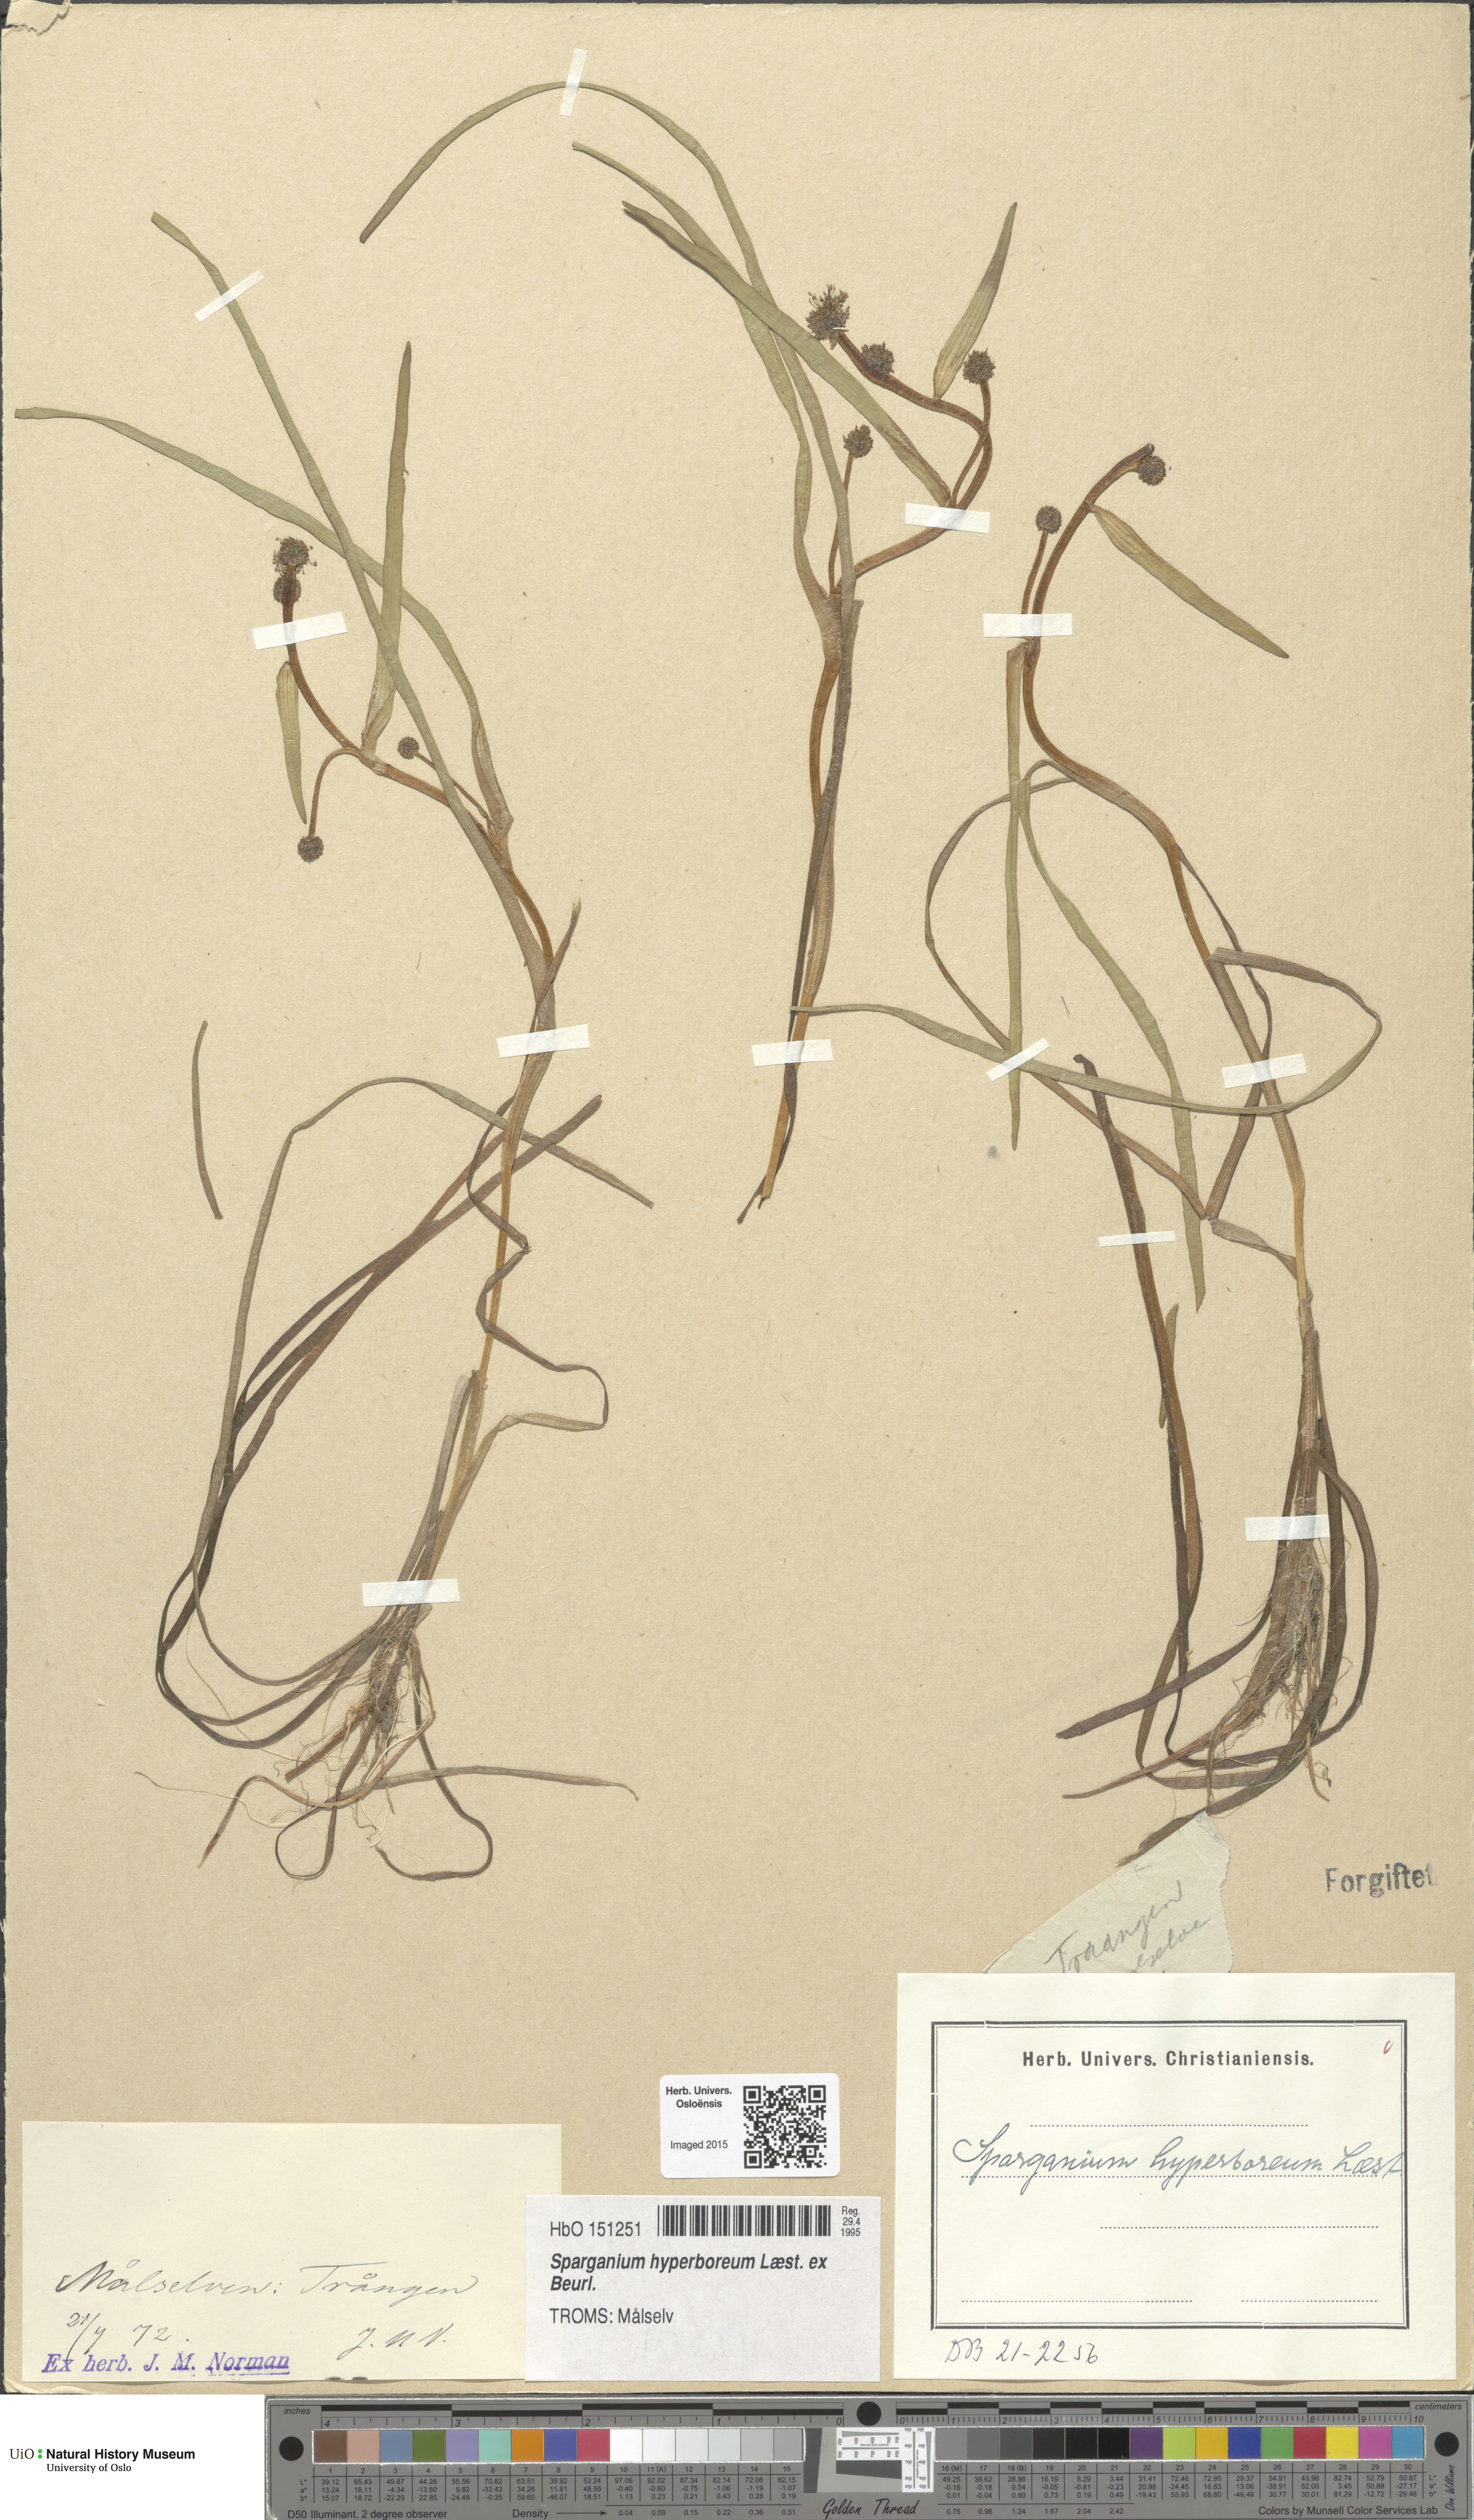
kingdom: Plantae
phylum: Tracheophyta
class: Liliopsida
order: Poales
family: Typhaceae
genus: Sparganium
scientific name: Sparganium hyperboreum
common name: Arctic burreed
